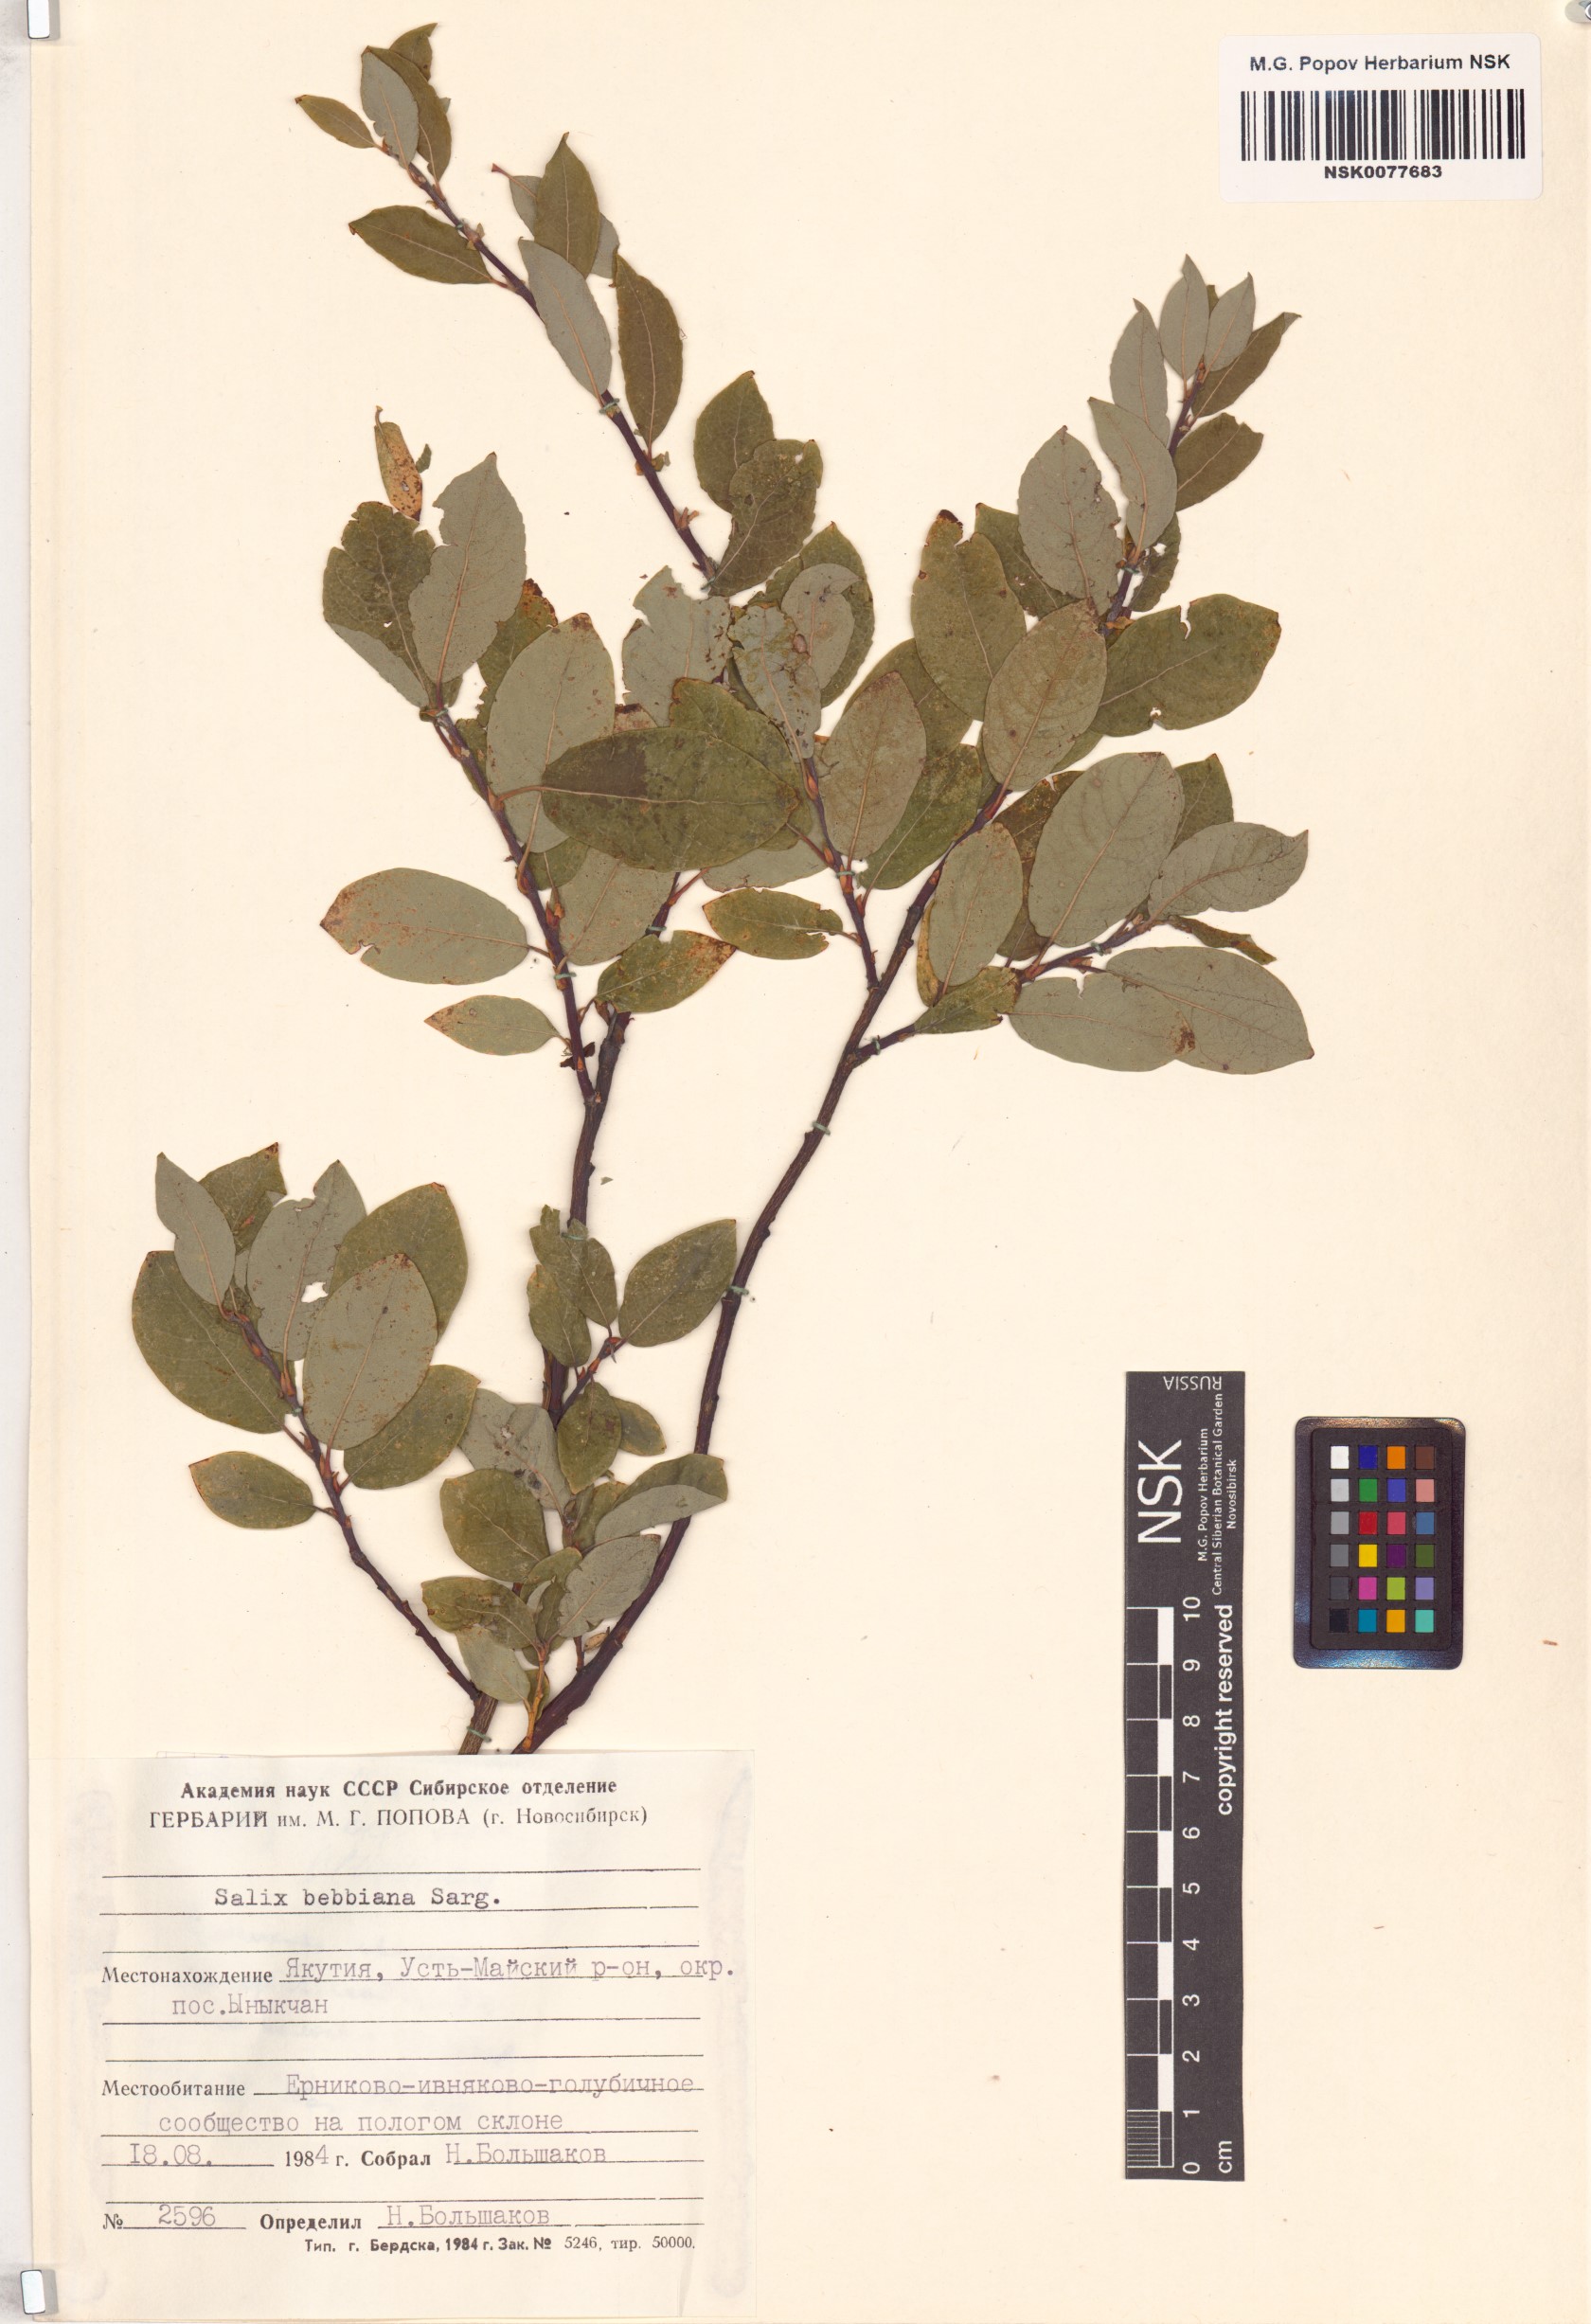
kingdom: Plantae
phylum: Tracheophyta
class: Magnoliopsida
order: Malpighiales
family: Salicaceae
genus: Salix
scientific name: Salix bebbiana
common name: Bebb's willow
